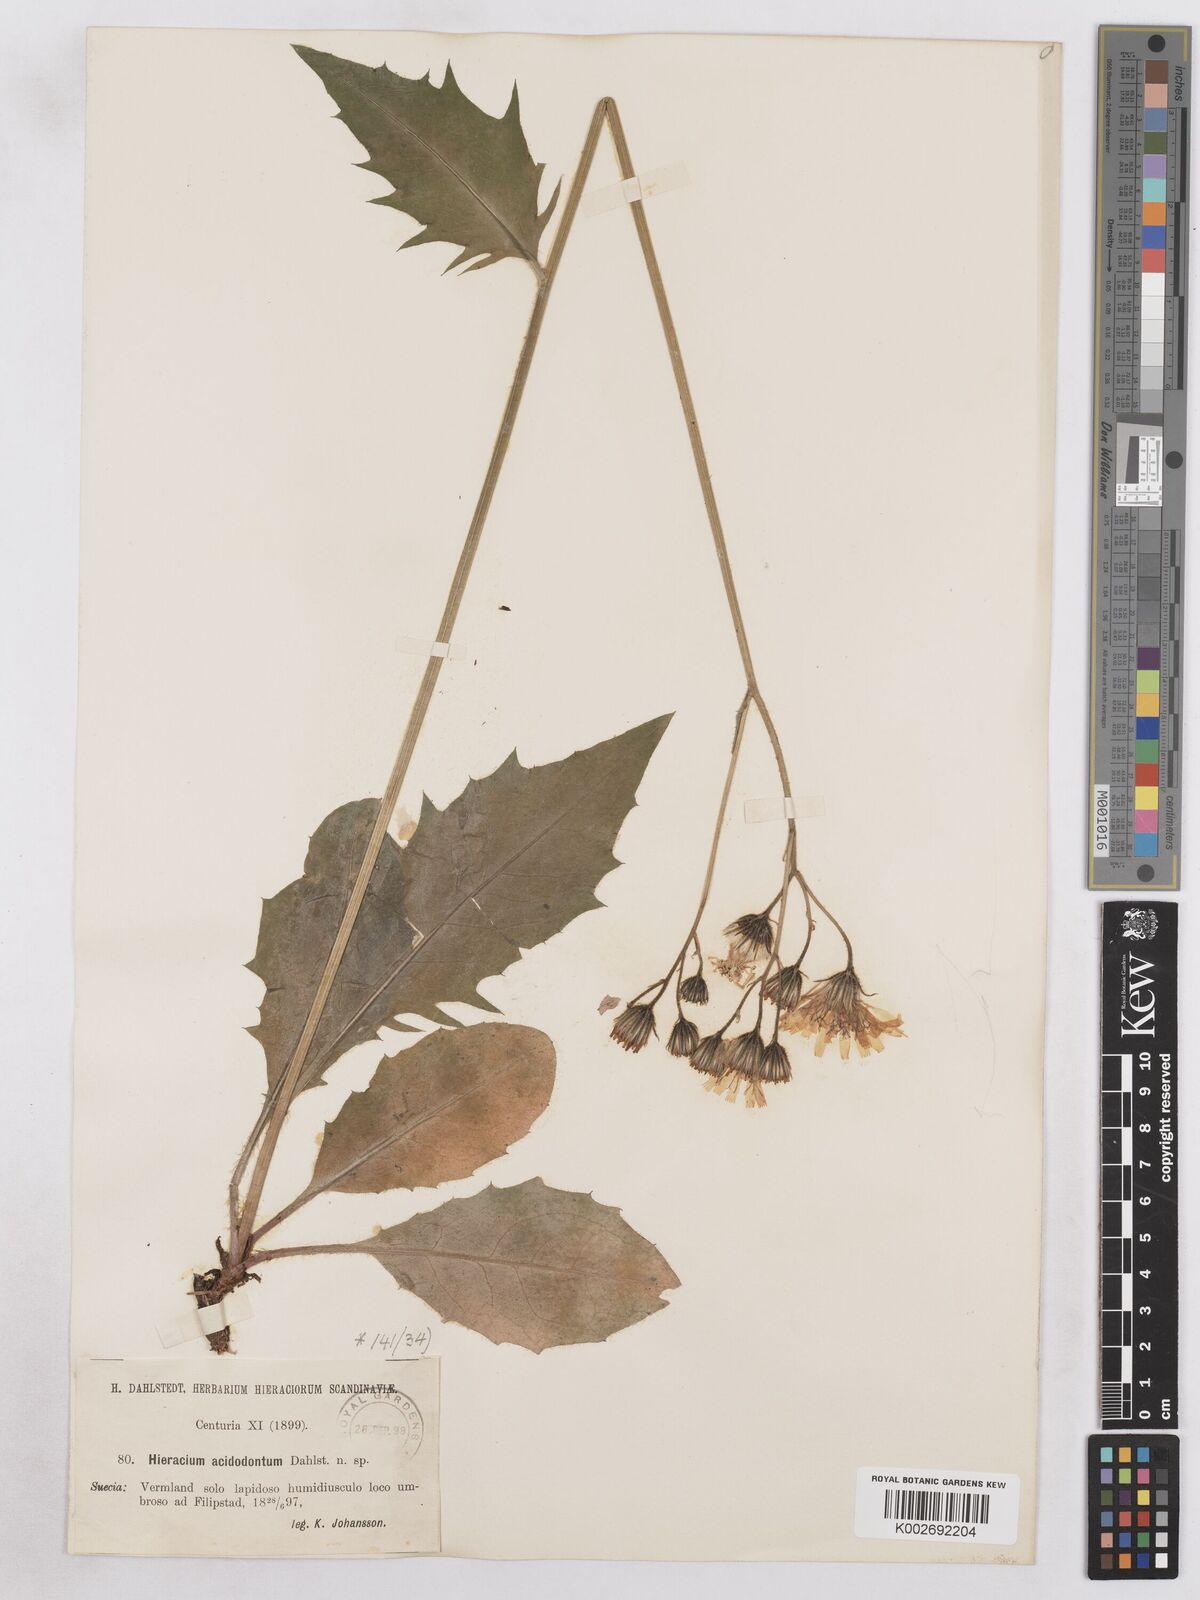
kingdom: Plantae
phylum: Tracheophyta
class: Magnoliopsida
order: Asterales
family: Asteraceae
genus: Hieracium
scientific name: Hieracium diaphanoides
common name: Fine-bracted hawkweed
